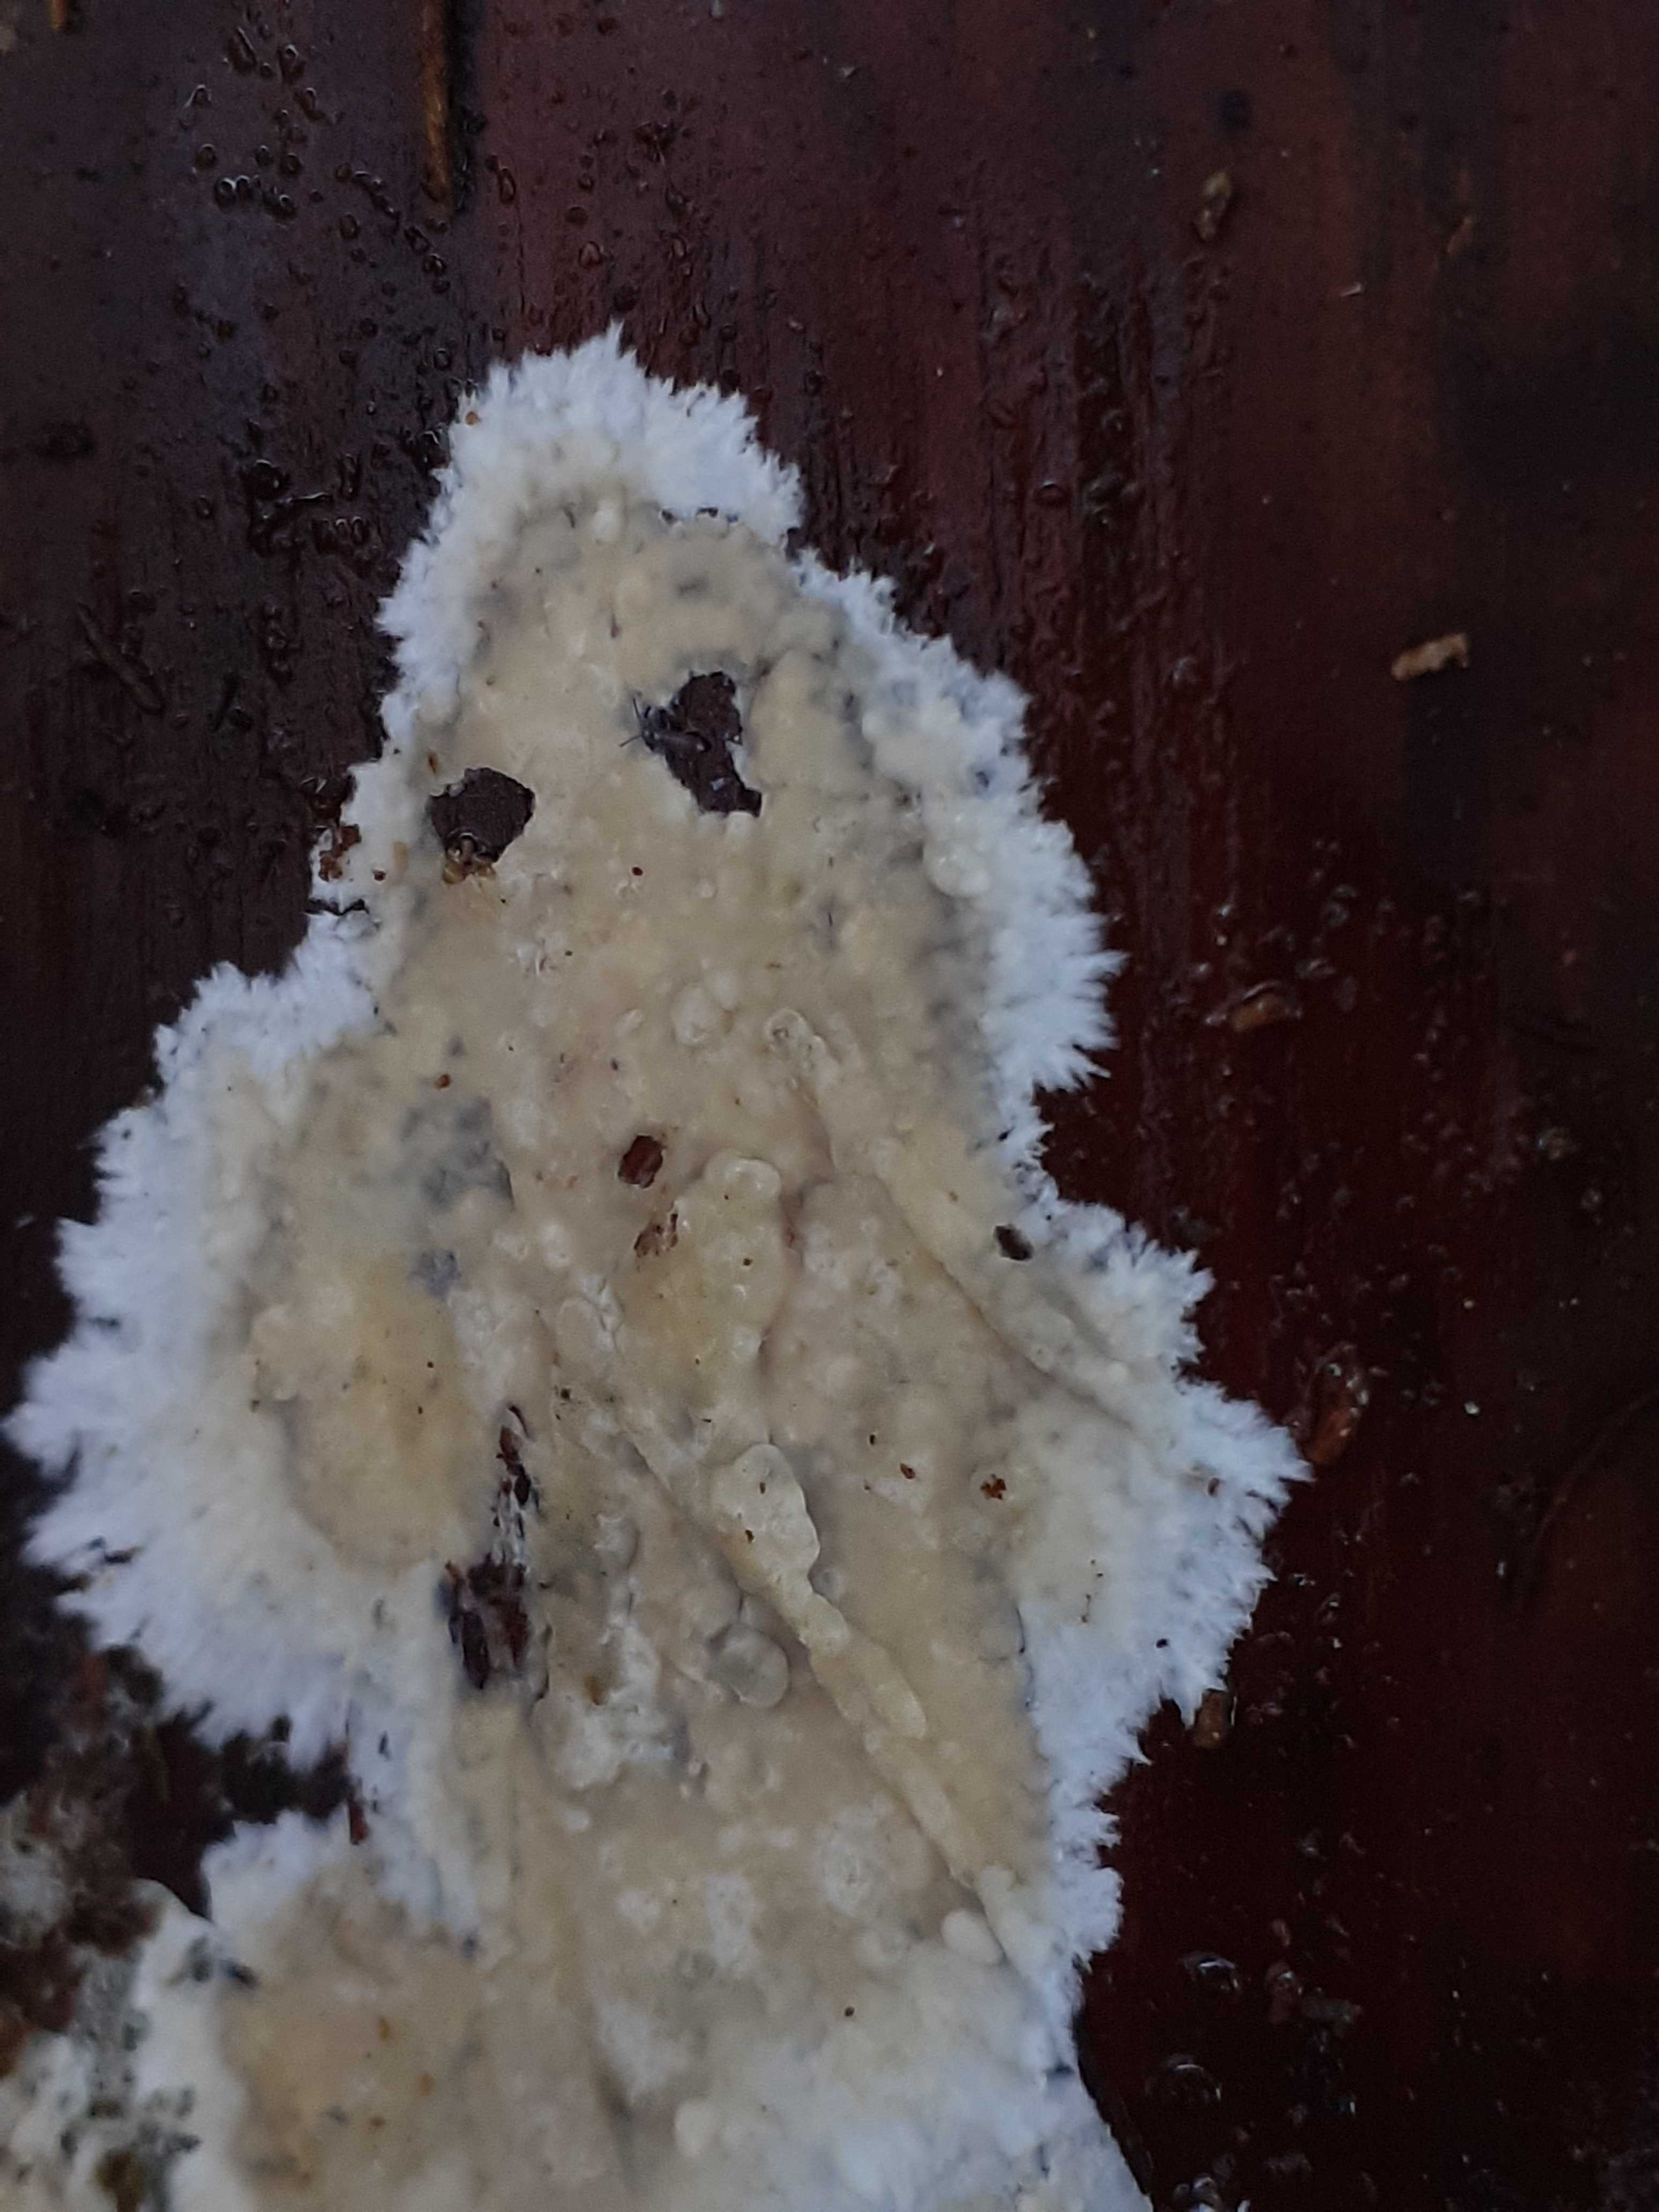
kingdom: Fungi
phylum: Basidiomycota
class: Agaricomycetes
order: Russulales
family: Peniophoraceae
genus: Gloiothele
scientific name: Gloiothele citrina
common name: citronskorpe
